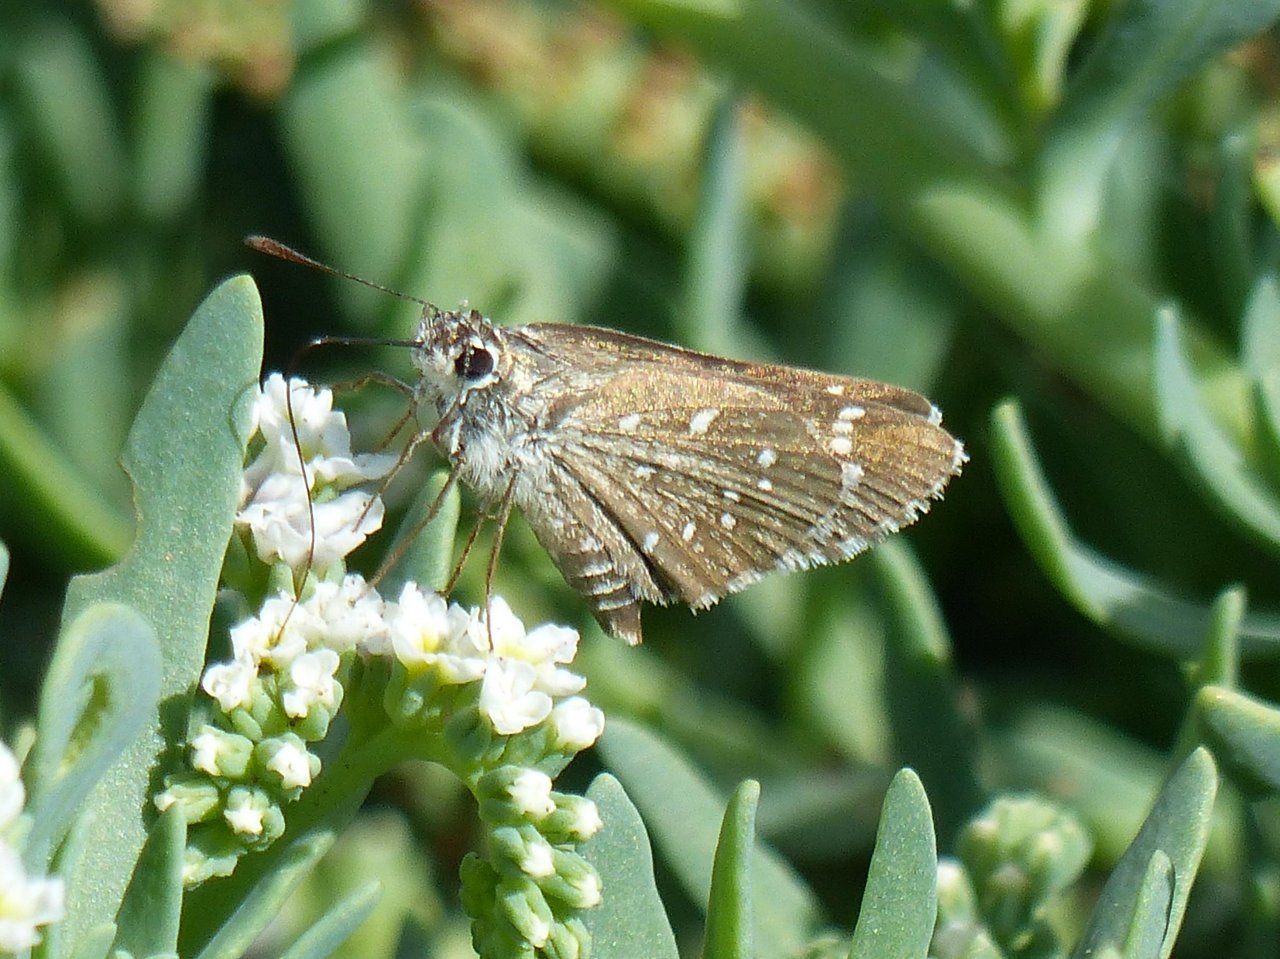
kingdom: Animalia
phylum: Arthropoda
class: Insecta
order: Lepidoptera
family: Hesperiidae
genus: Mastor
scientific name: Mastor eos
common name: Dotted Roadside-Skipper
